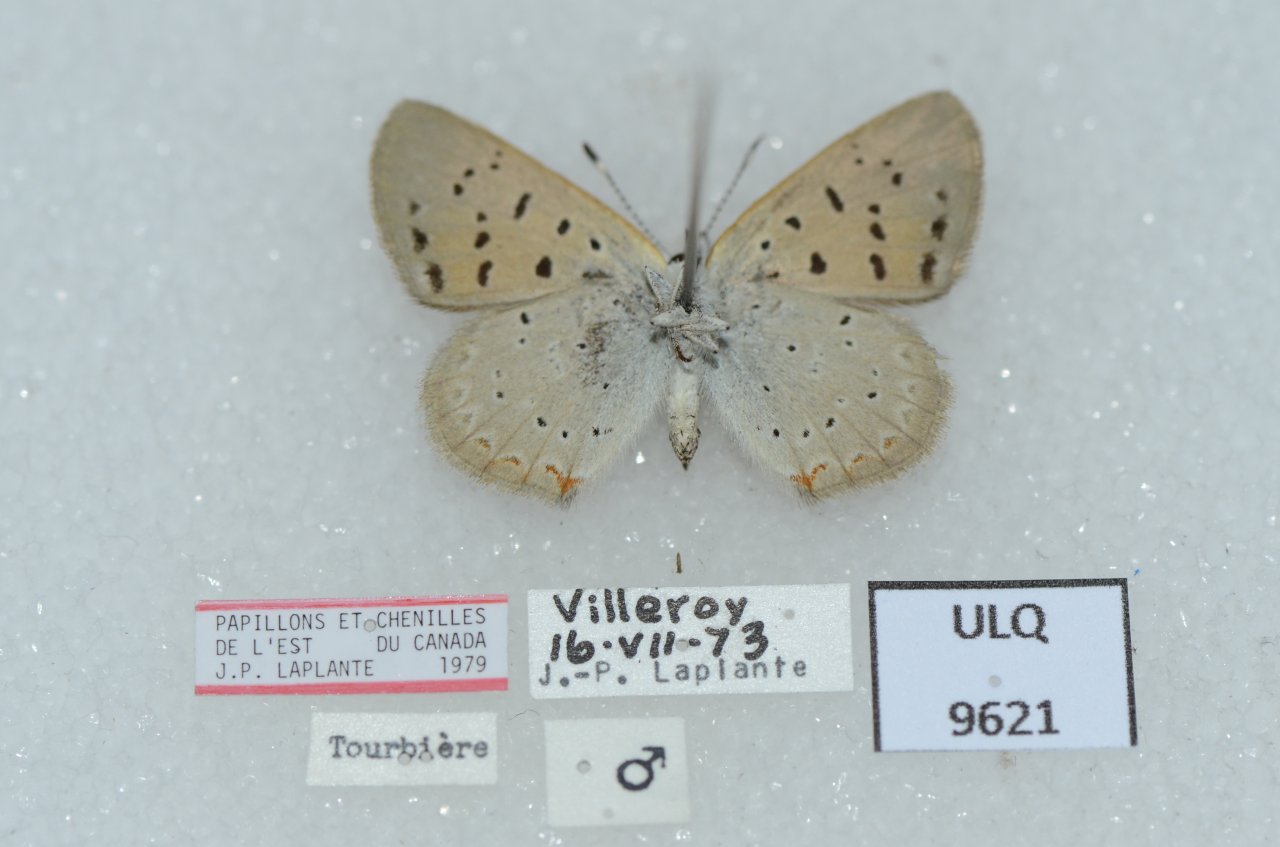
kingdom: Animalia
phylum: Arthropoda
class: Insecta
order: Lepidoptera
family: Sesiidae
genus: Sesia
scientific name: Sesia Lycaena epixanthe
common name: Bog Copper
